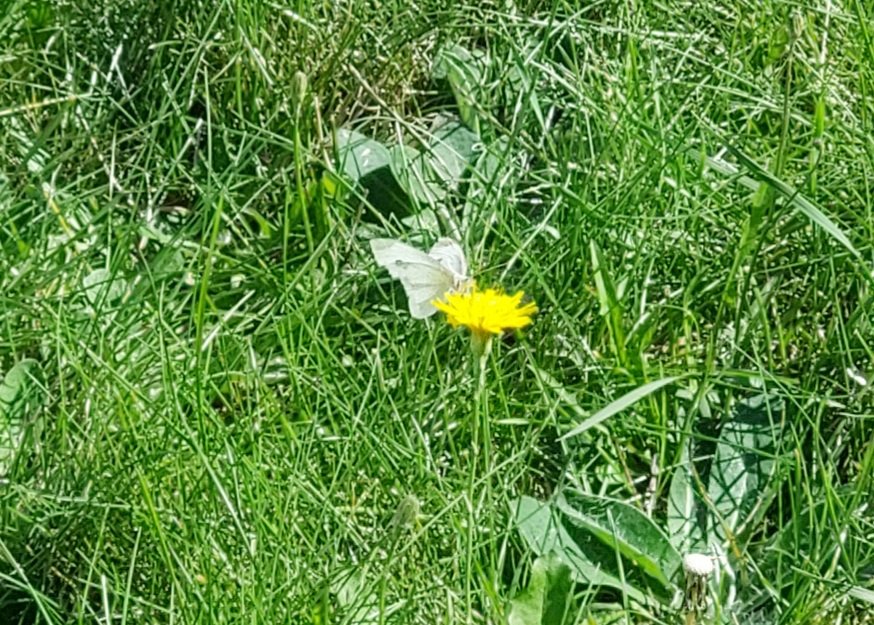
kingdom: Animalia
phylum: Arthropoda
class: Insecta
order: Lepidoptera
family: Pieridae
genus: Pieris
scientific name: Pieris rapae
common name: Cabbage White
